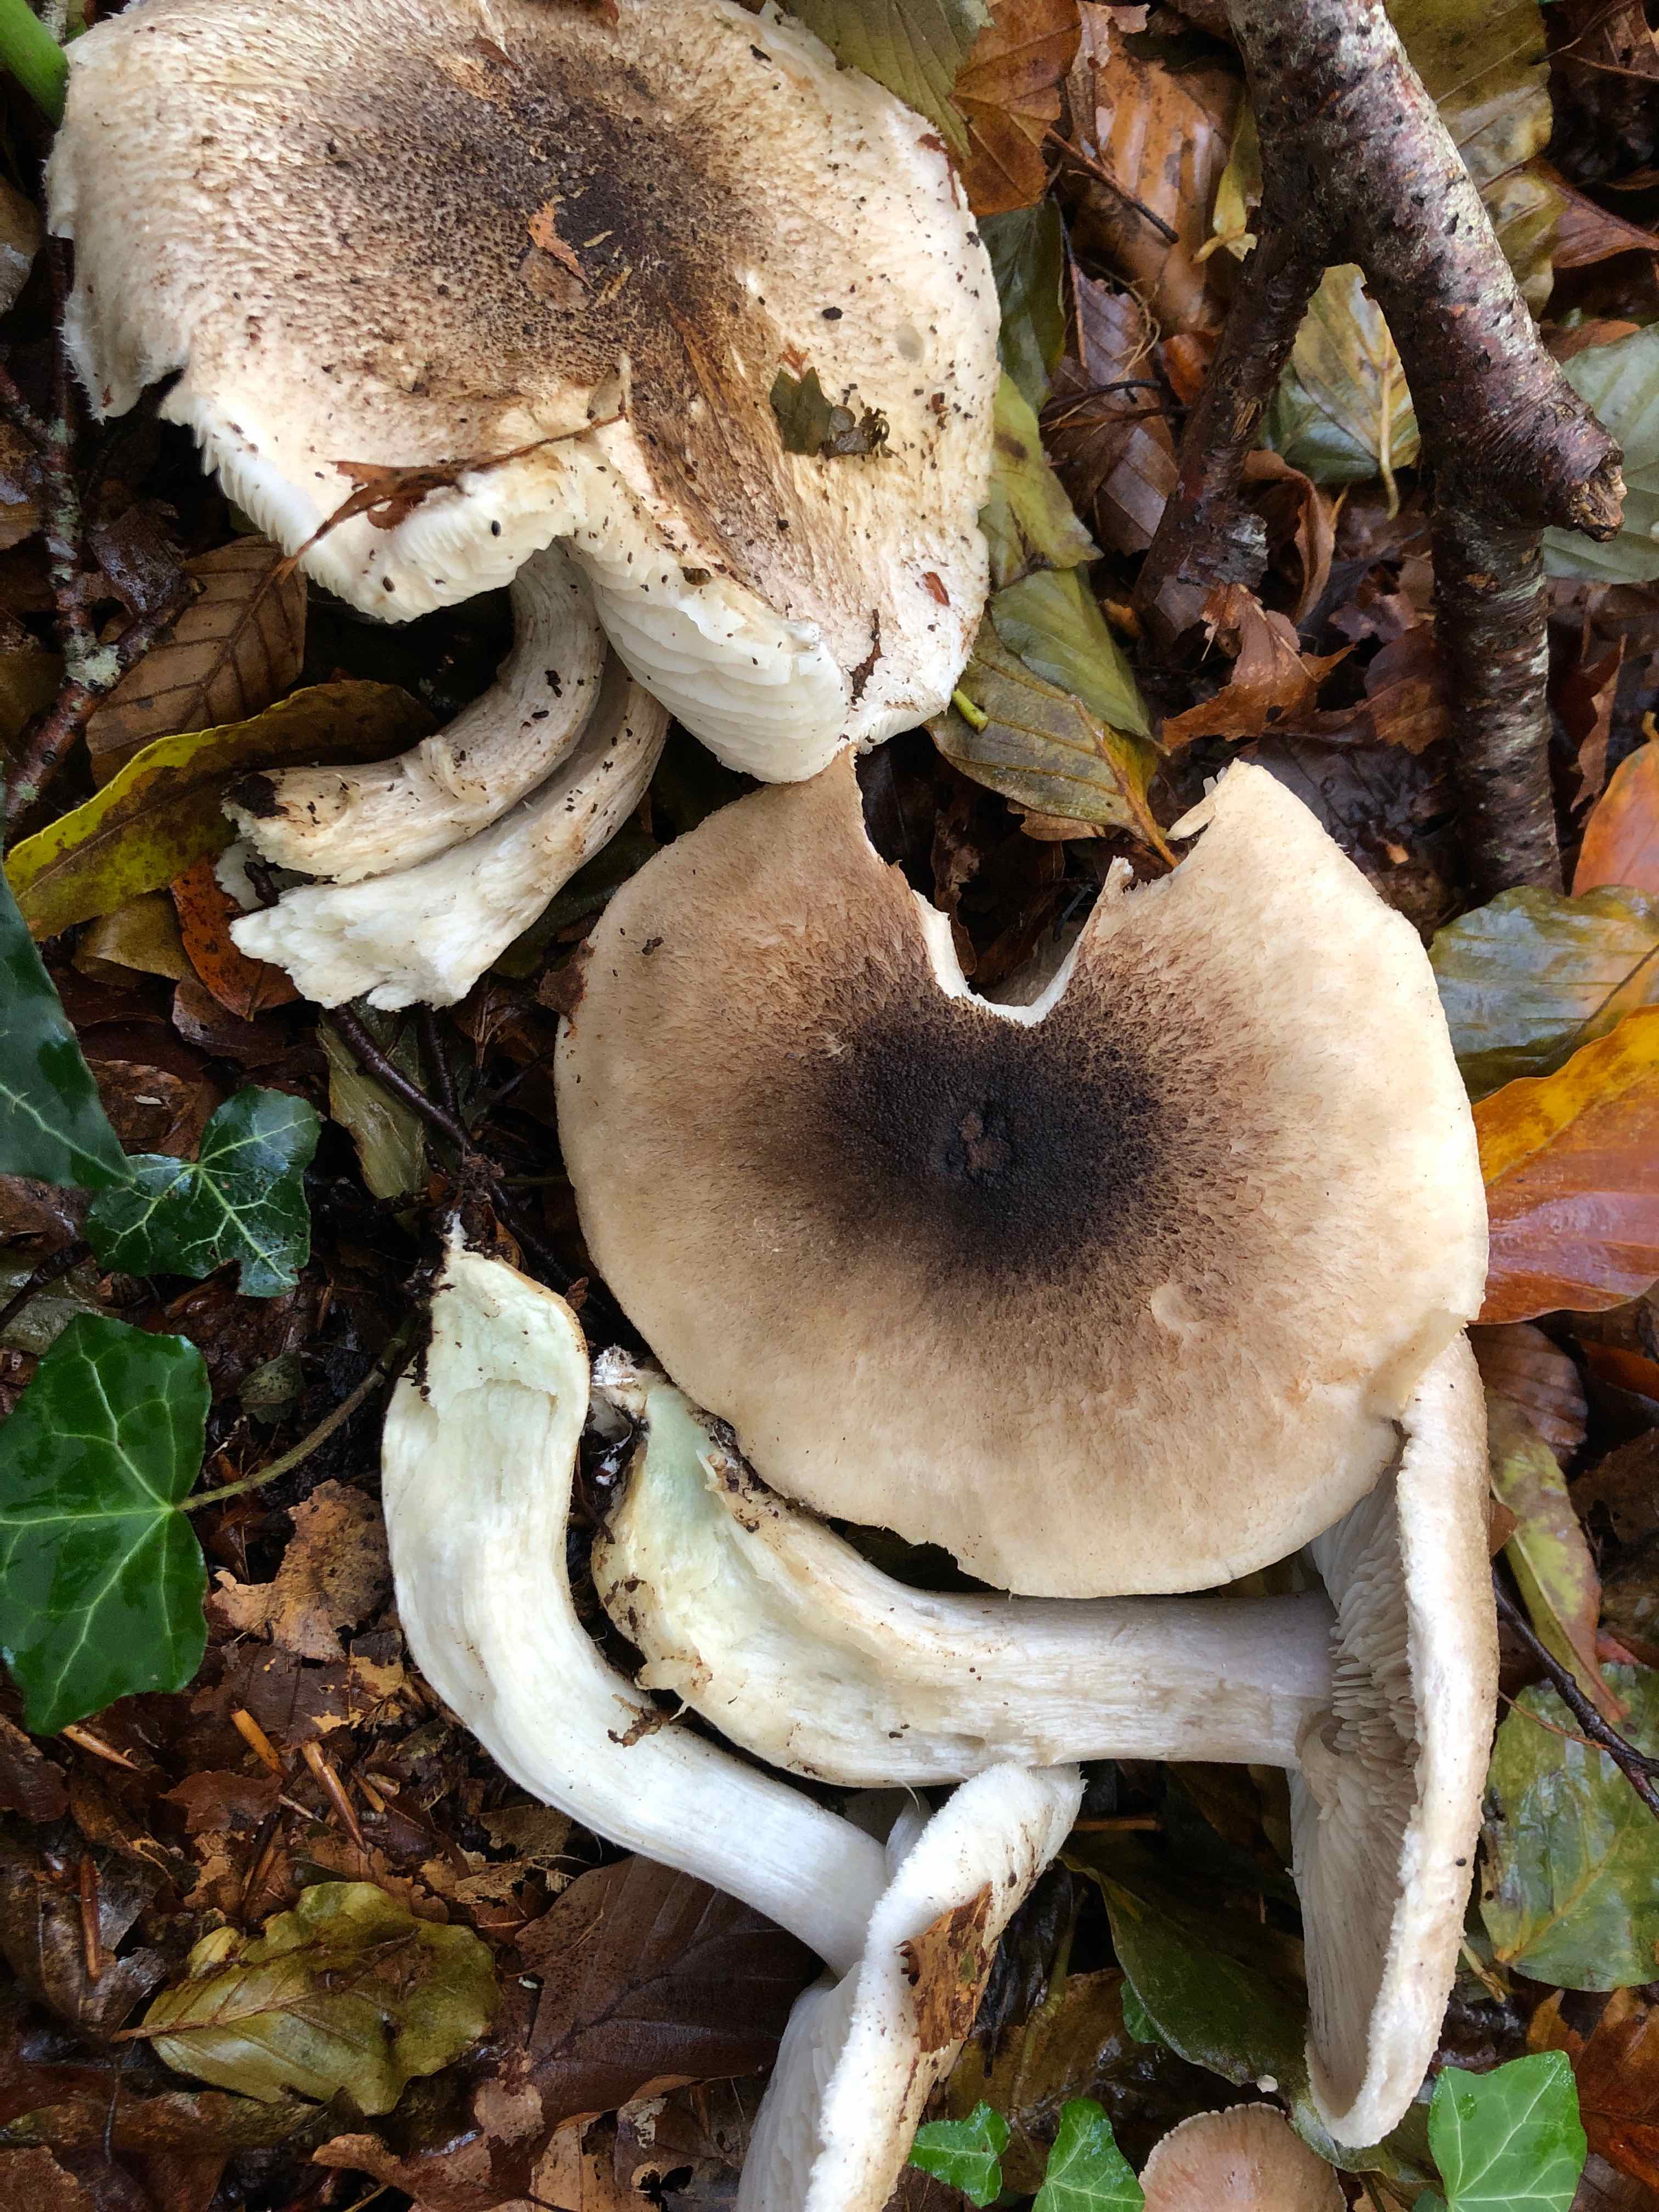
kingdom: Fungi
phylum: Basidiomycota
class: Agaricomycetes
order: Agaricales
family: Tricholomataceae
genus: Tricholoma
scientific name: Tricholoma orirubens
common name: rødbladet ridderhat
